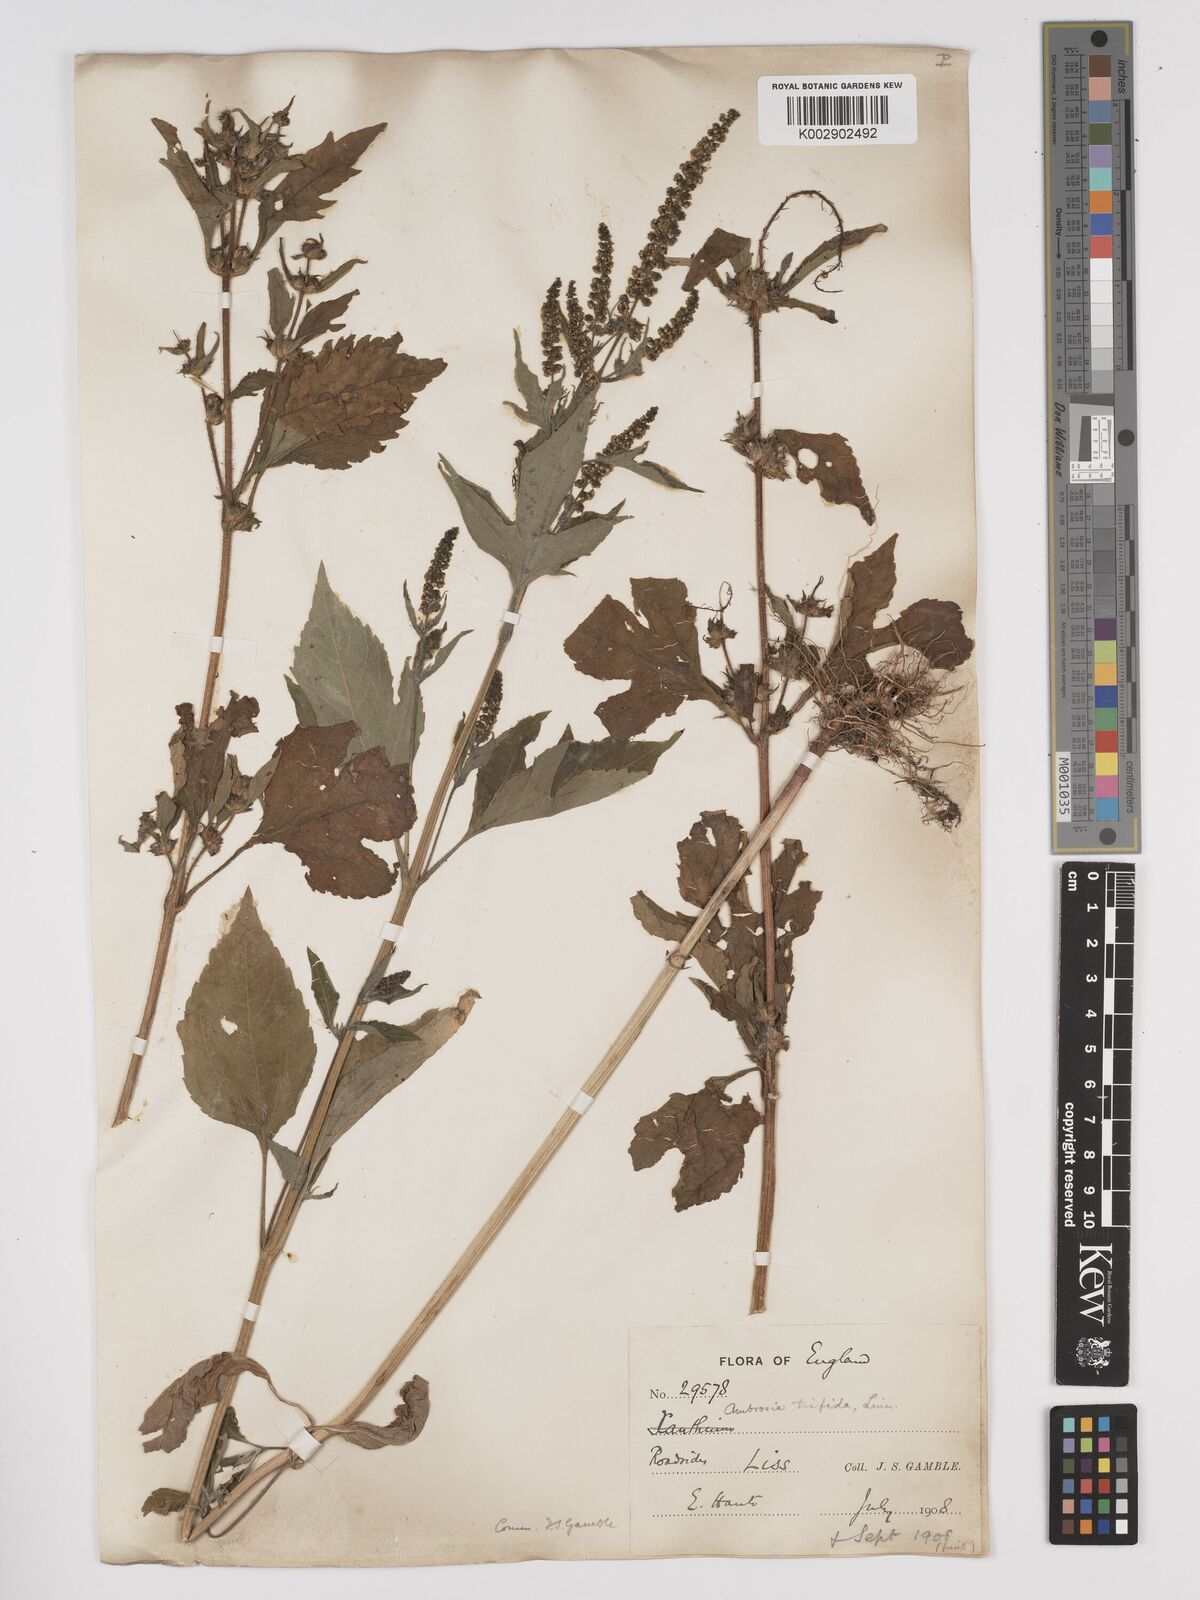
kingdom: Plantae
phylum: Tracheophyta
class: Magnoliopsida
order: Asterales
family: Asteraceae
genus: Ambrosia
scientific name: Ambrosia trifida
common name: Giant ragweed
